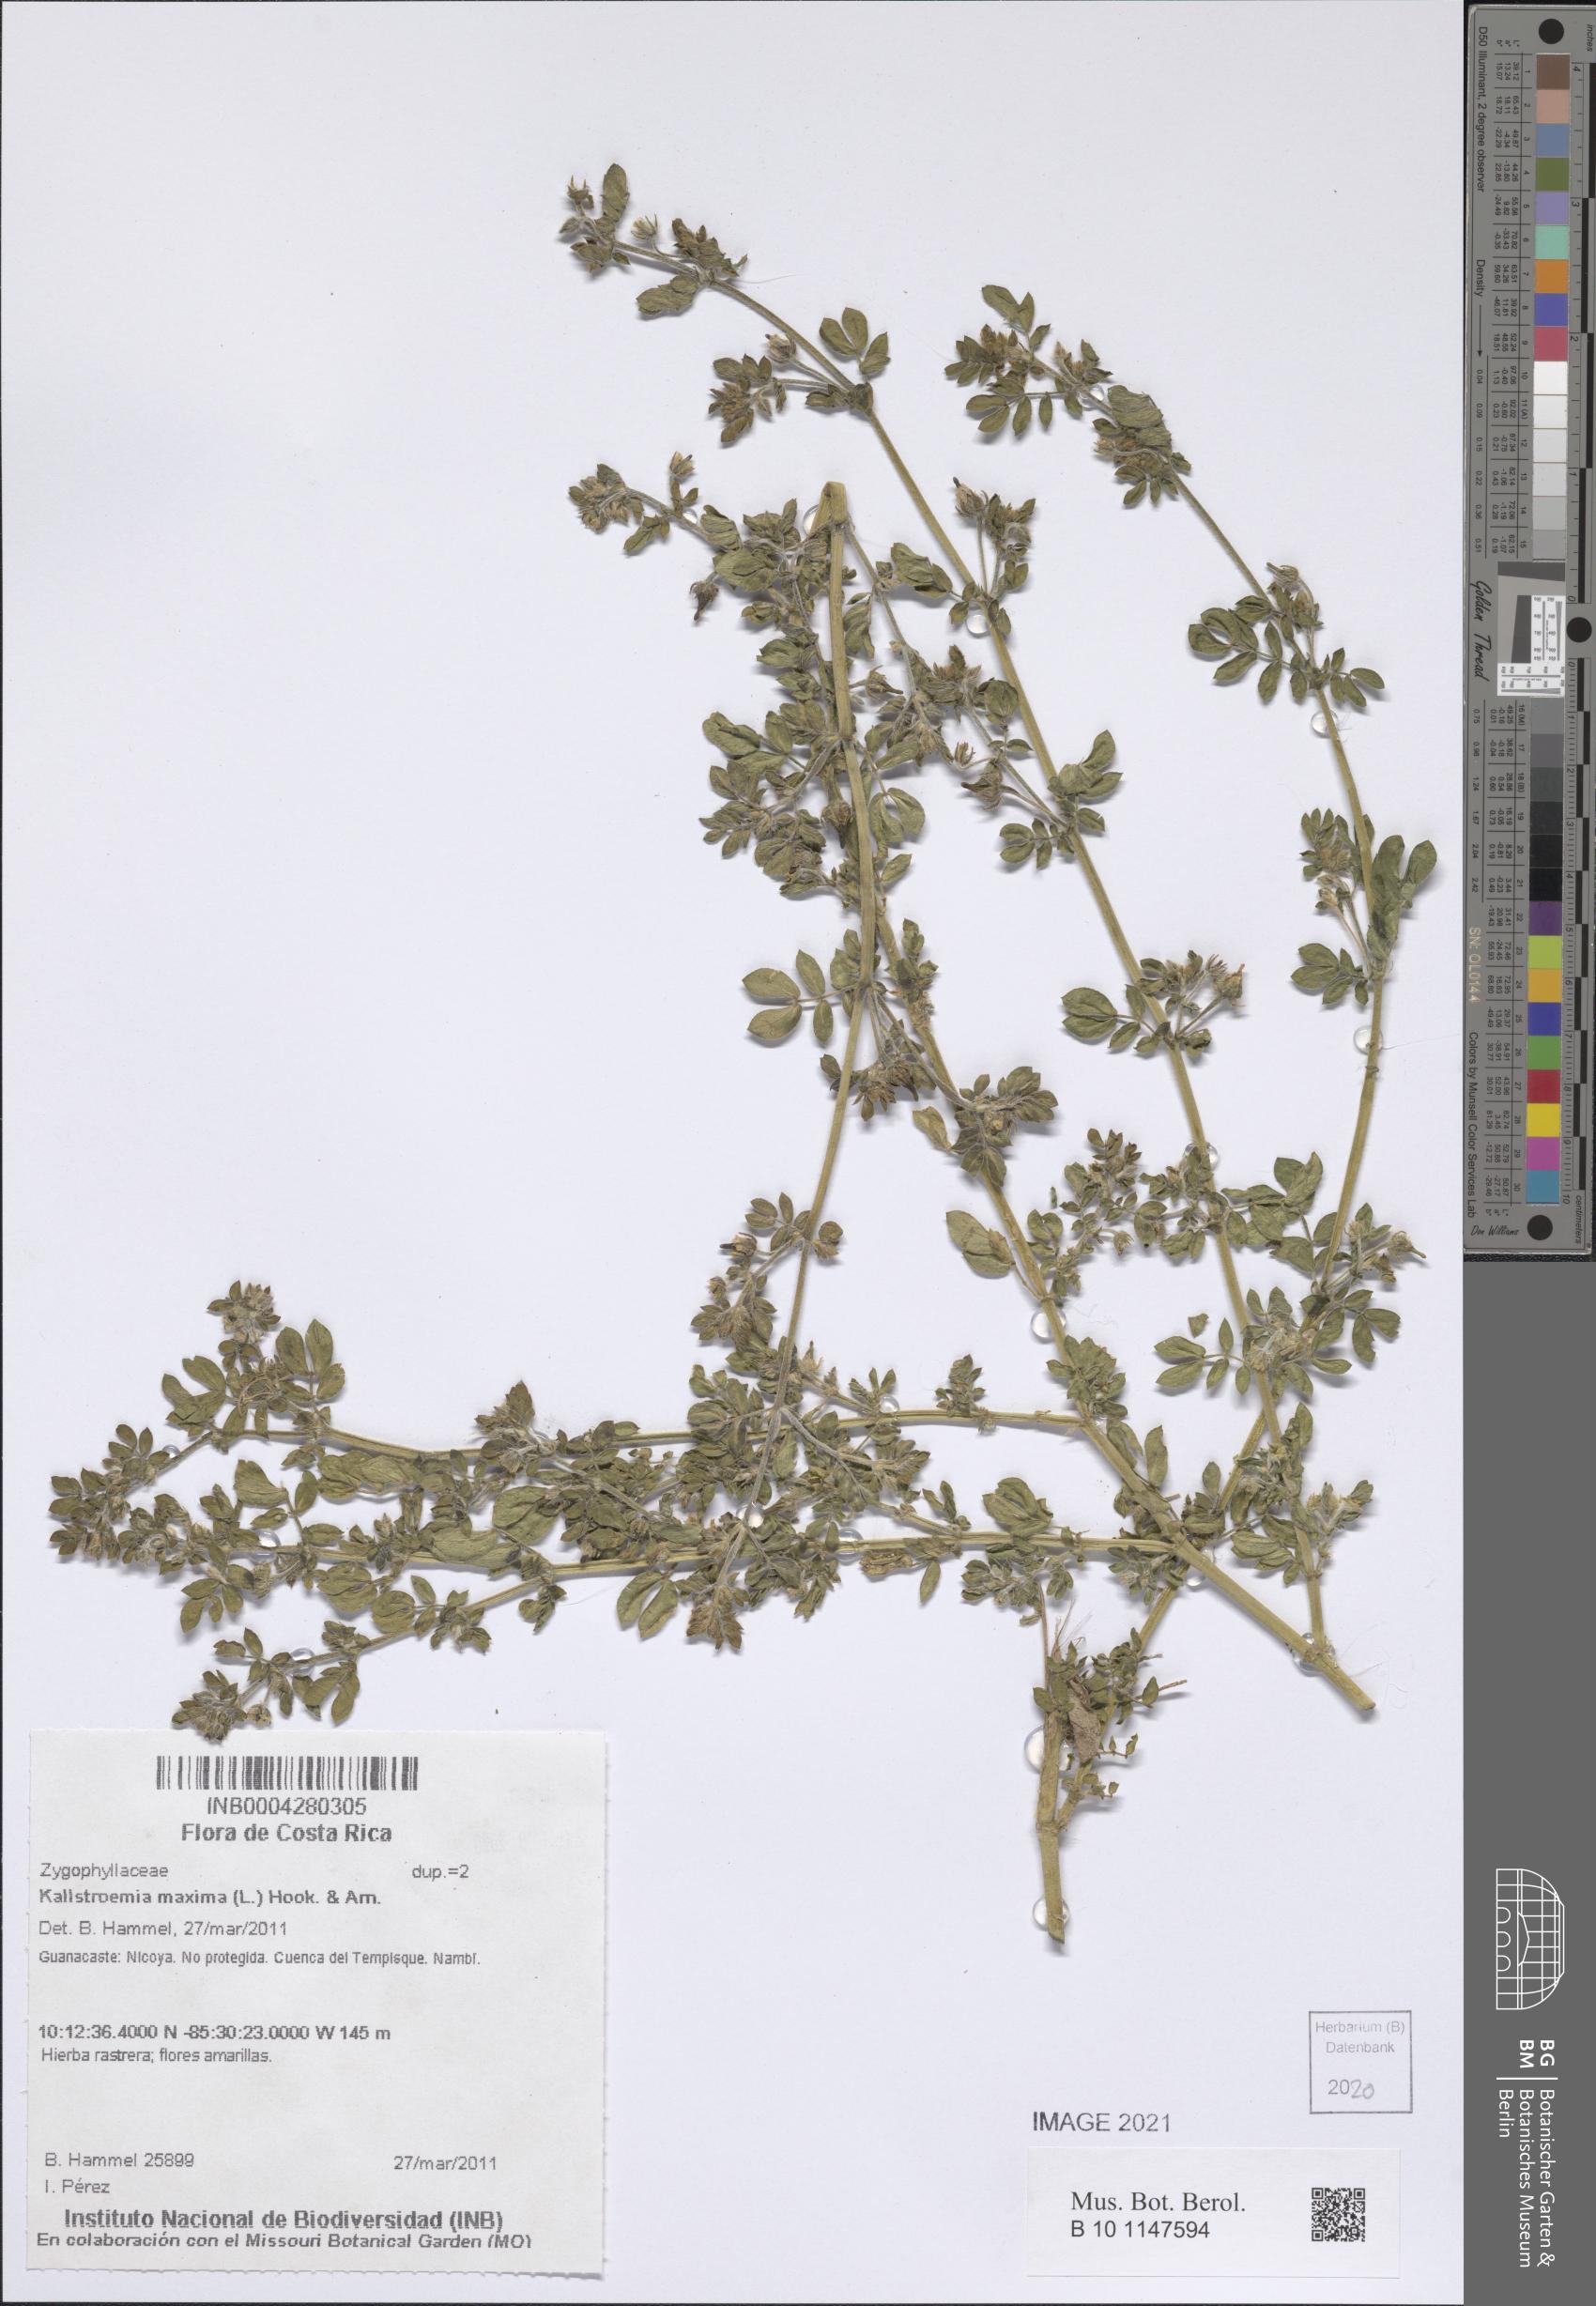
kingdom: Plantae
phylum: Tracheophyta
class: Magnoliopsida
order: Zygophyllales
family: Zygophyllaceae
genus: Kallstroemia
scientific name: Kallstroemia maxima
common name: Big caltropa
